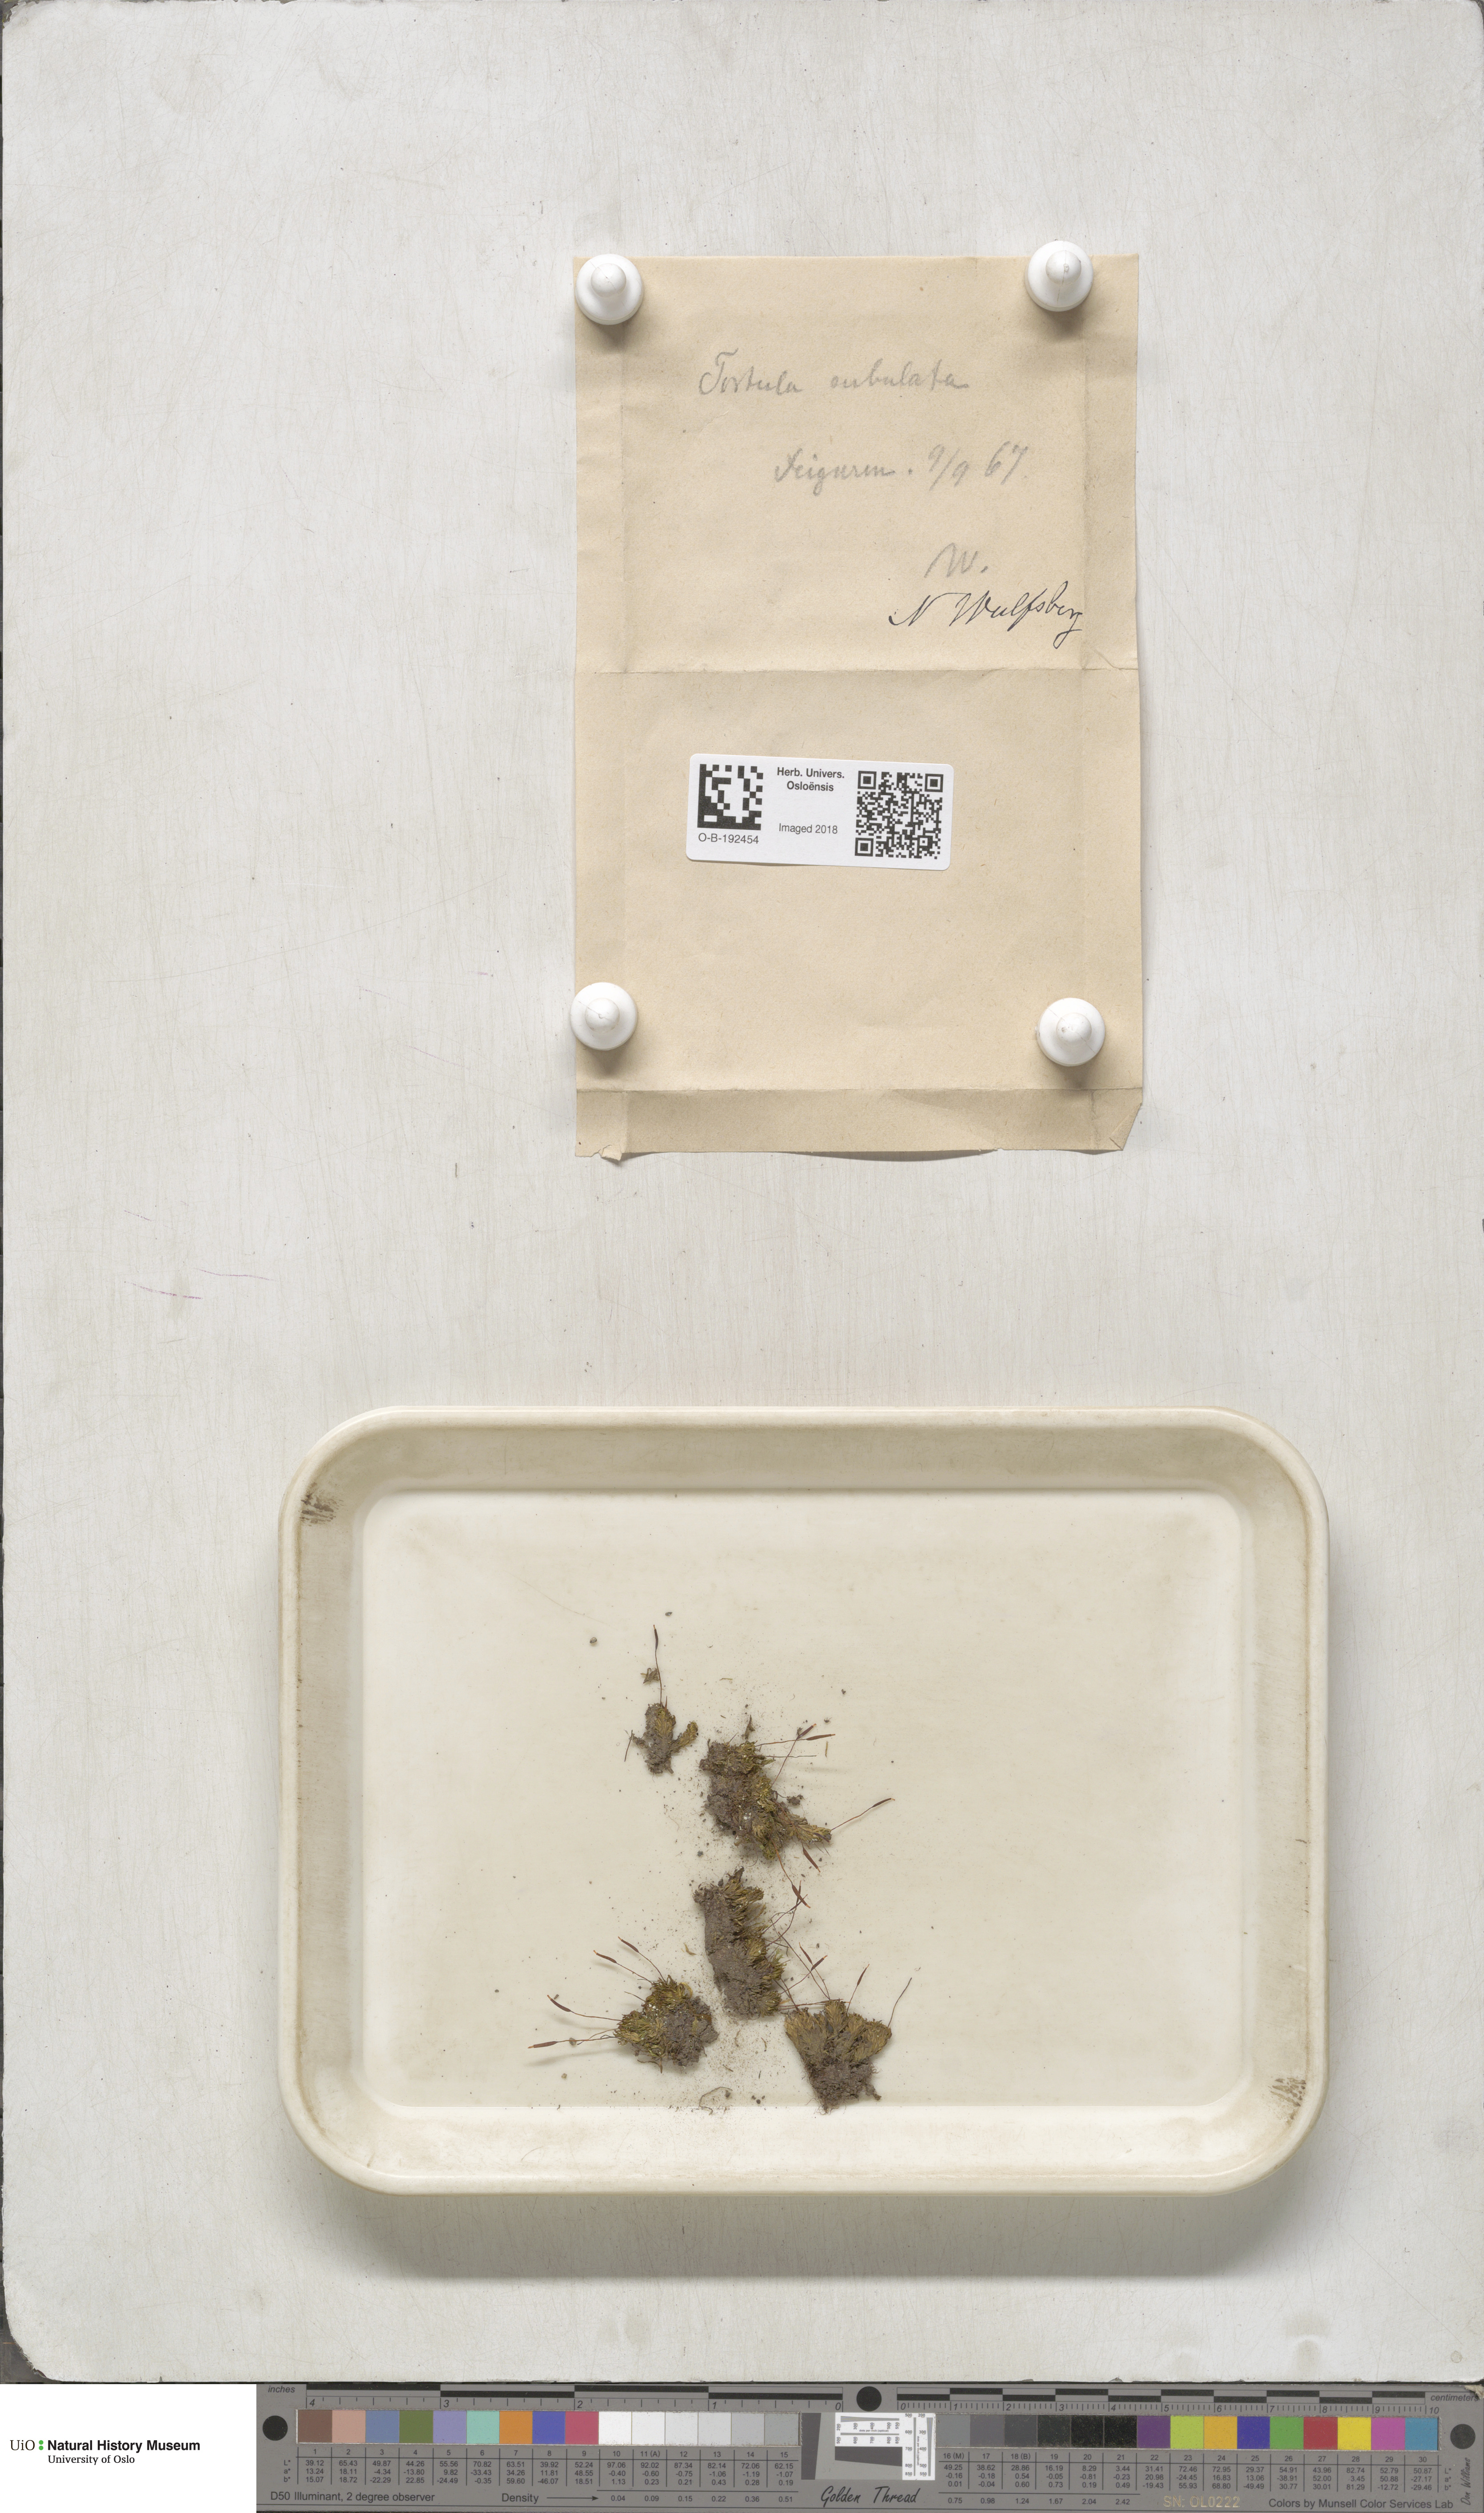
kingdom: Plantae
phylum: Bryophyta
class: Bryopsida
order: Pottiales
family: Pottiaceae
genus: Tortula
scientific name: Tortula subulata
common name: Upright screw-moss
